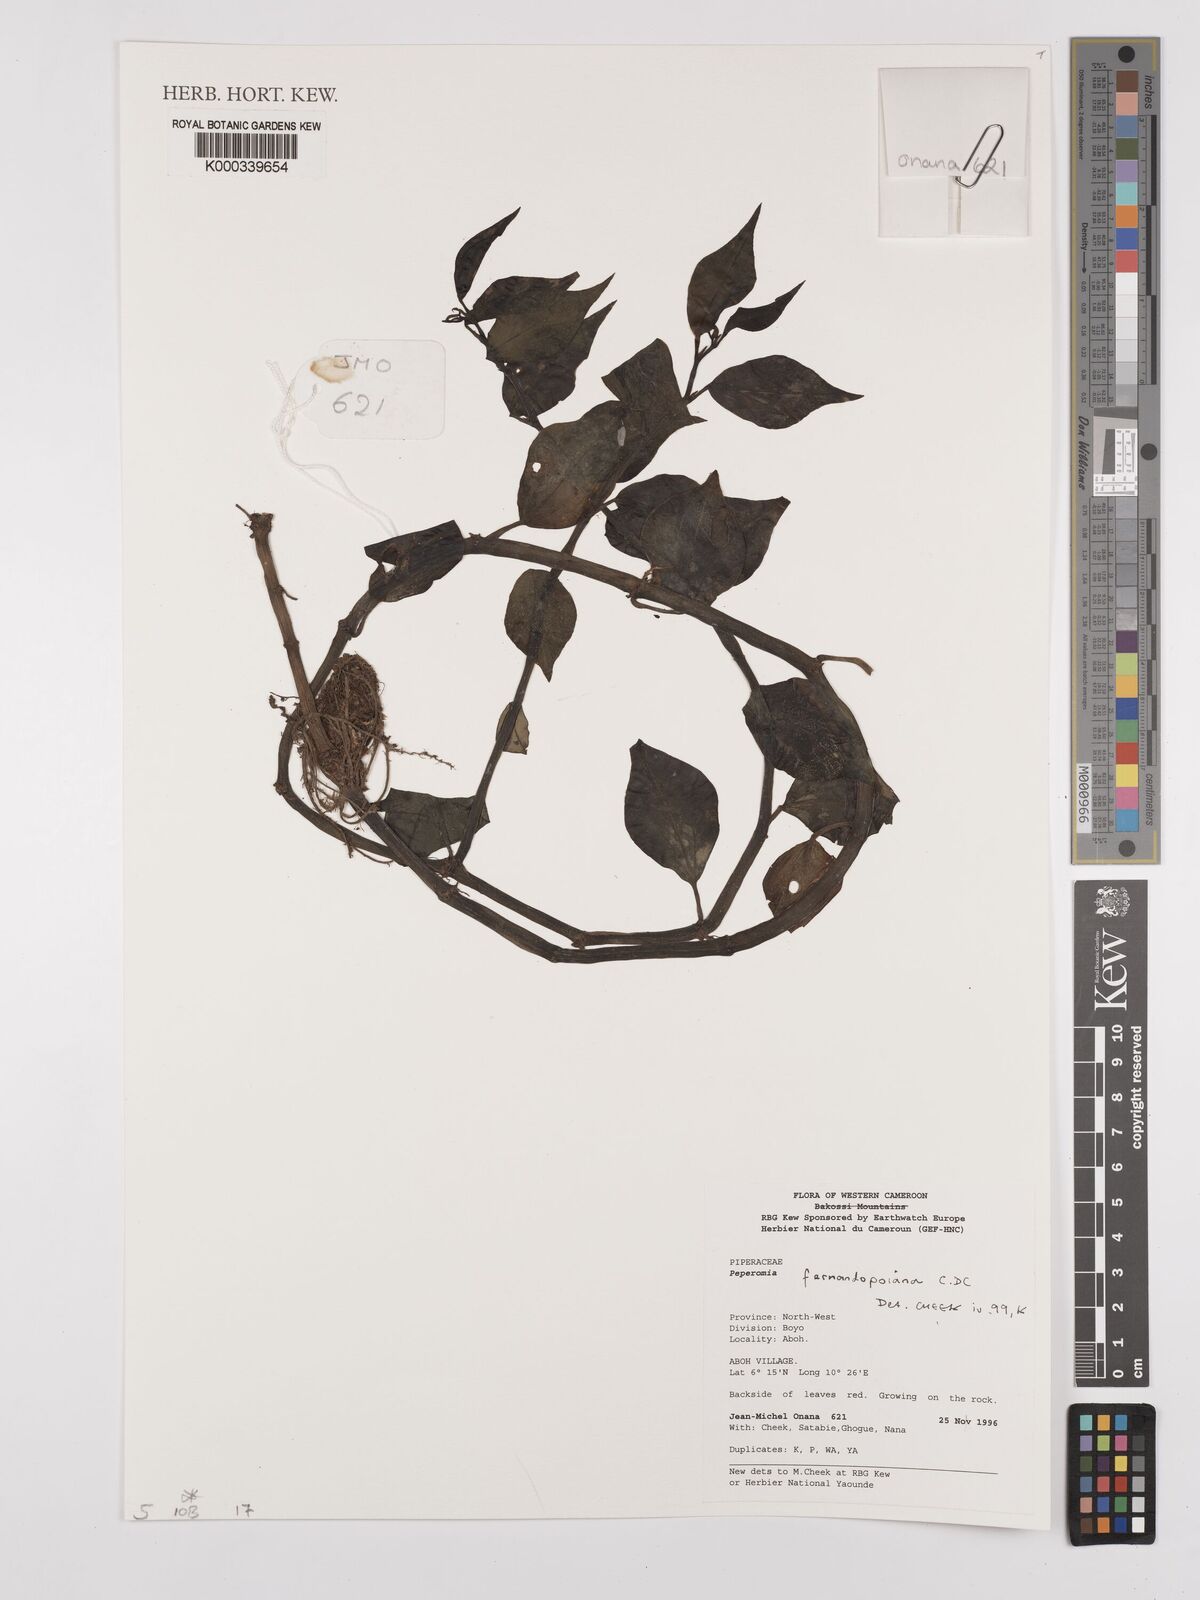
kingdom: Plantae
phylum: Tracheophyta
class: Magnoliopsida
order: Piperales
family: Piperaceae
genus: Peperomia
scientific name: Peperomia fernandopoiana
